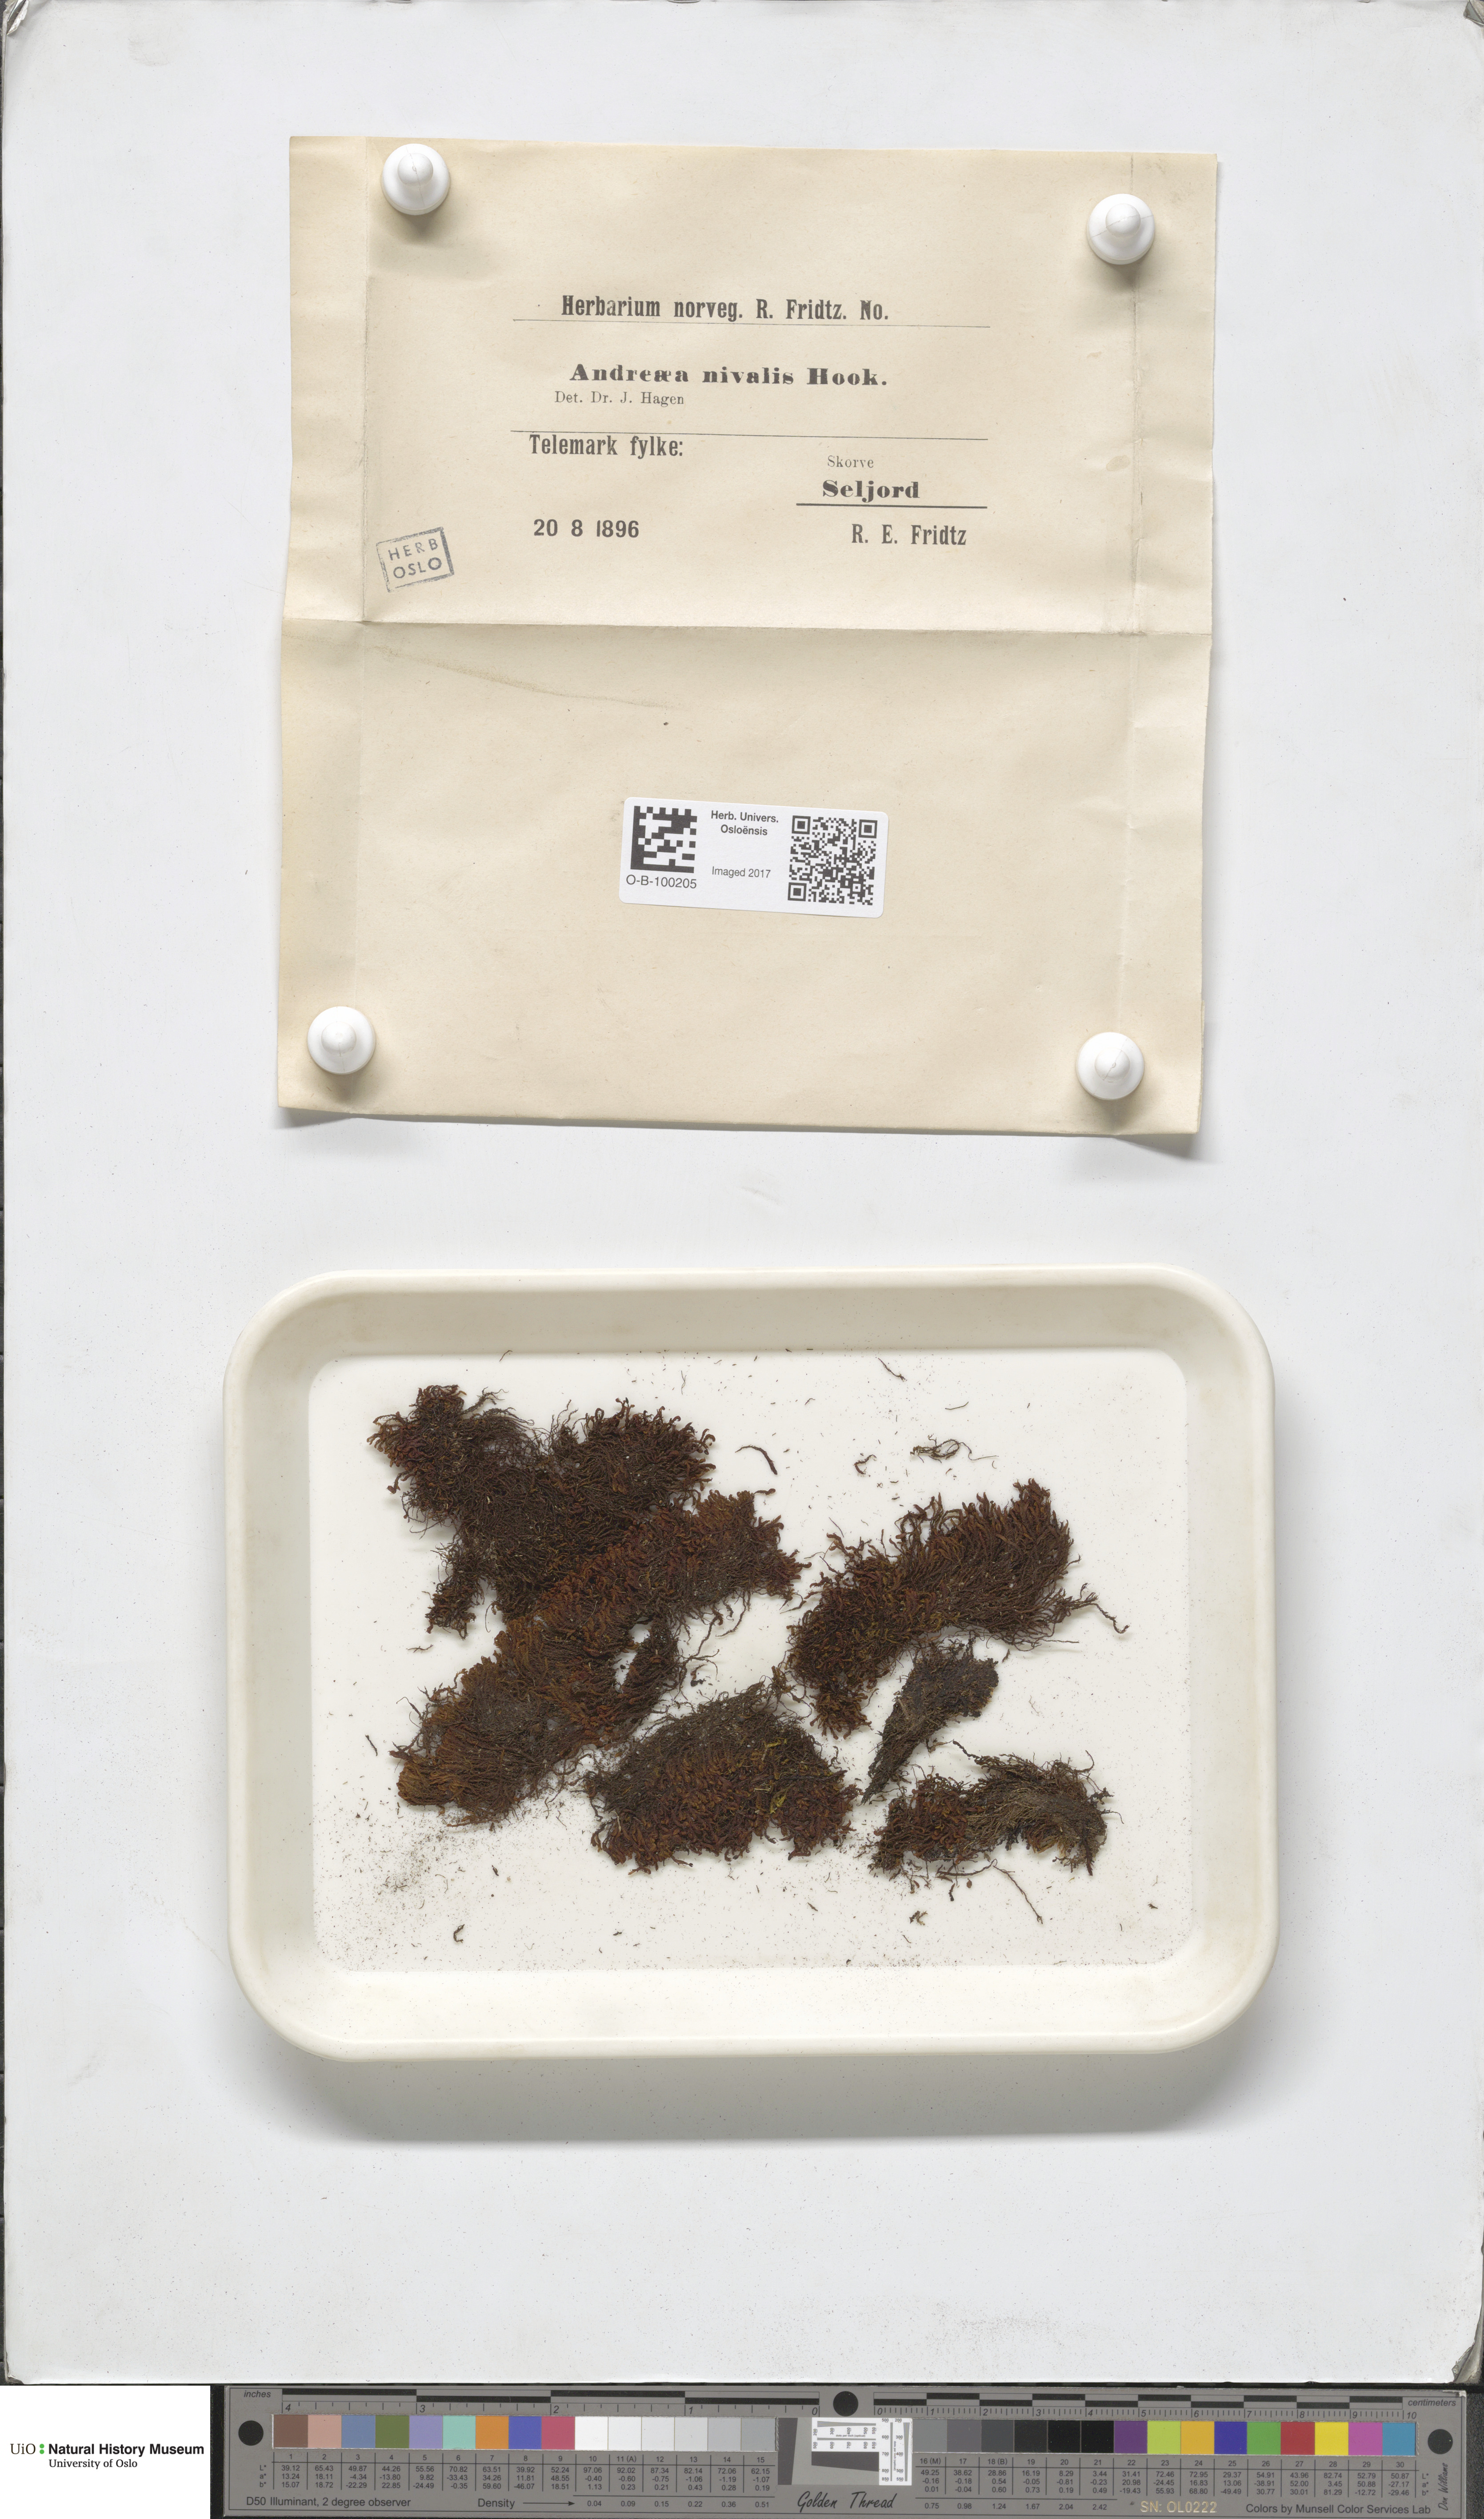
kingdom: Plantae
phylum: Bryophyta
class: Andreaeopsida
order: Andreaeales
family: Andreaeaceae
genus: Andreaea
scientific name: Andreaea nivalis
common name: Snow rock moss
